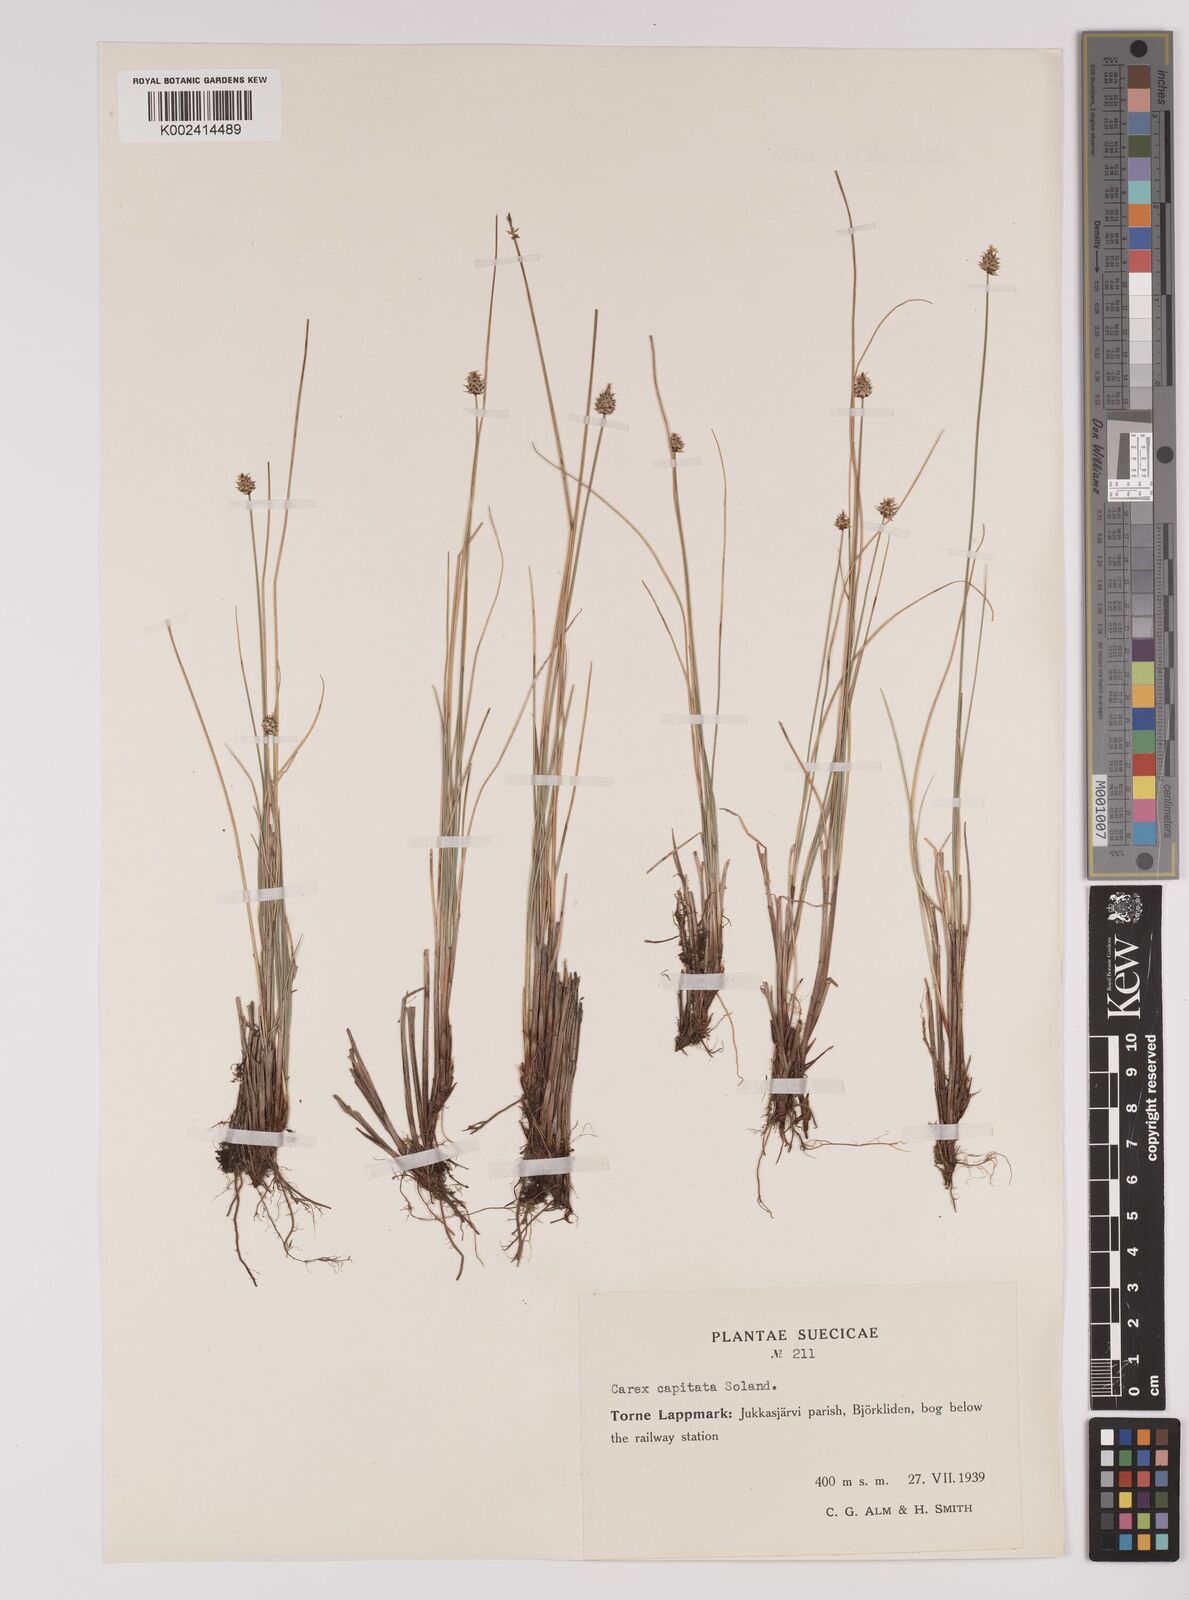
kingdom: Plantae
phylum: Tracheophyta
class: Liliopsida
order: Poales
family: Cyperaceae
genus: Carex
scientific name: Carex capitata
